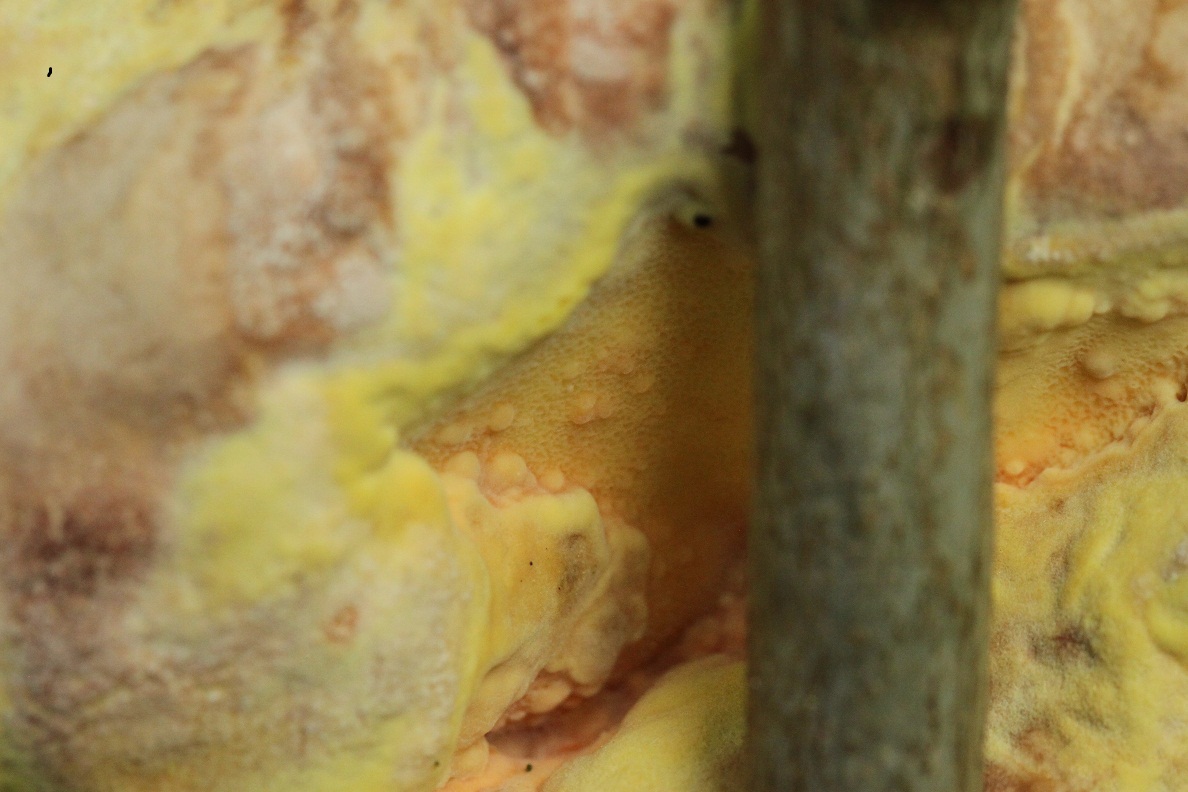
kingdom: Fungi
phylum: Basidiomycota
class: Agaricomycetes
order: Polyporales
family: Laetiporaceae
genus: Laetiporus
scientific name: Laetiporus sulphureus
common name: svovlporesvamp
